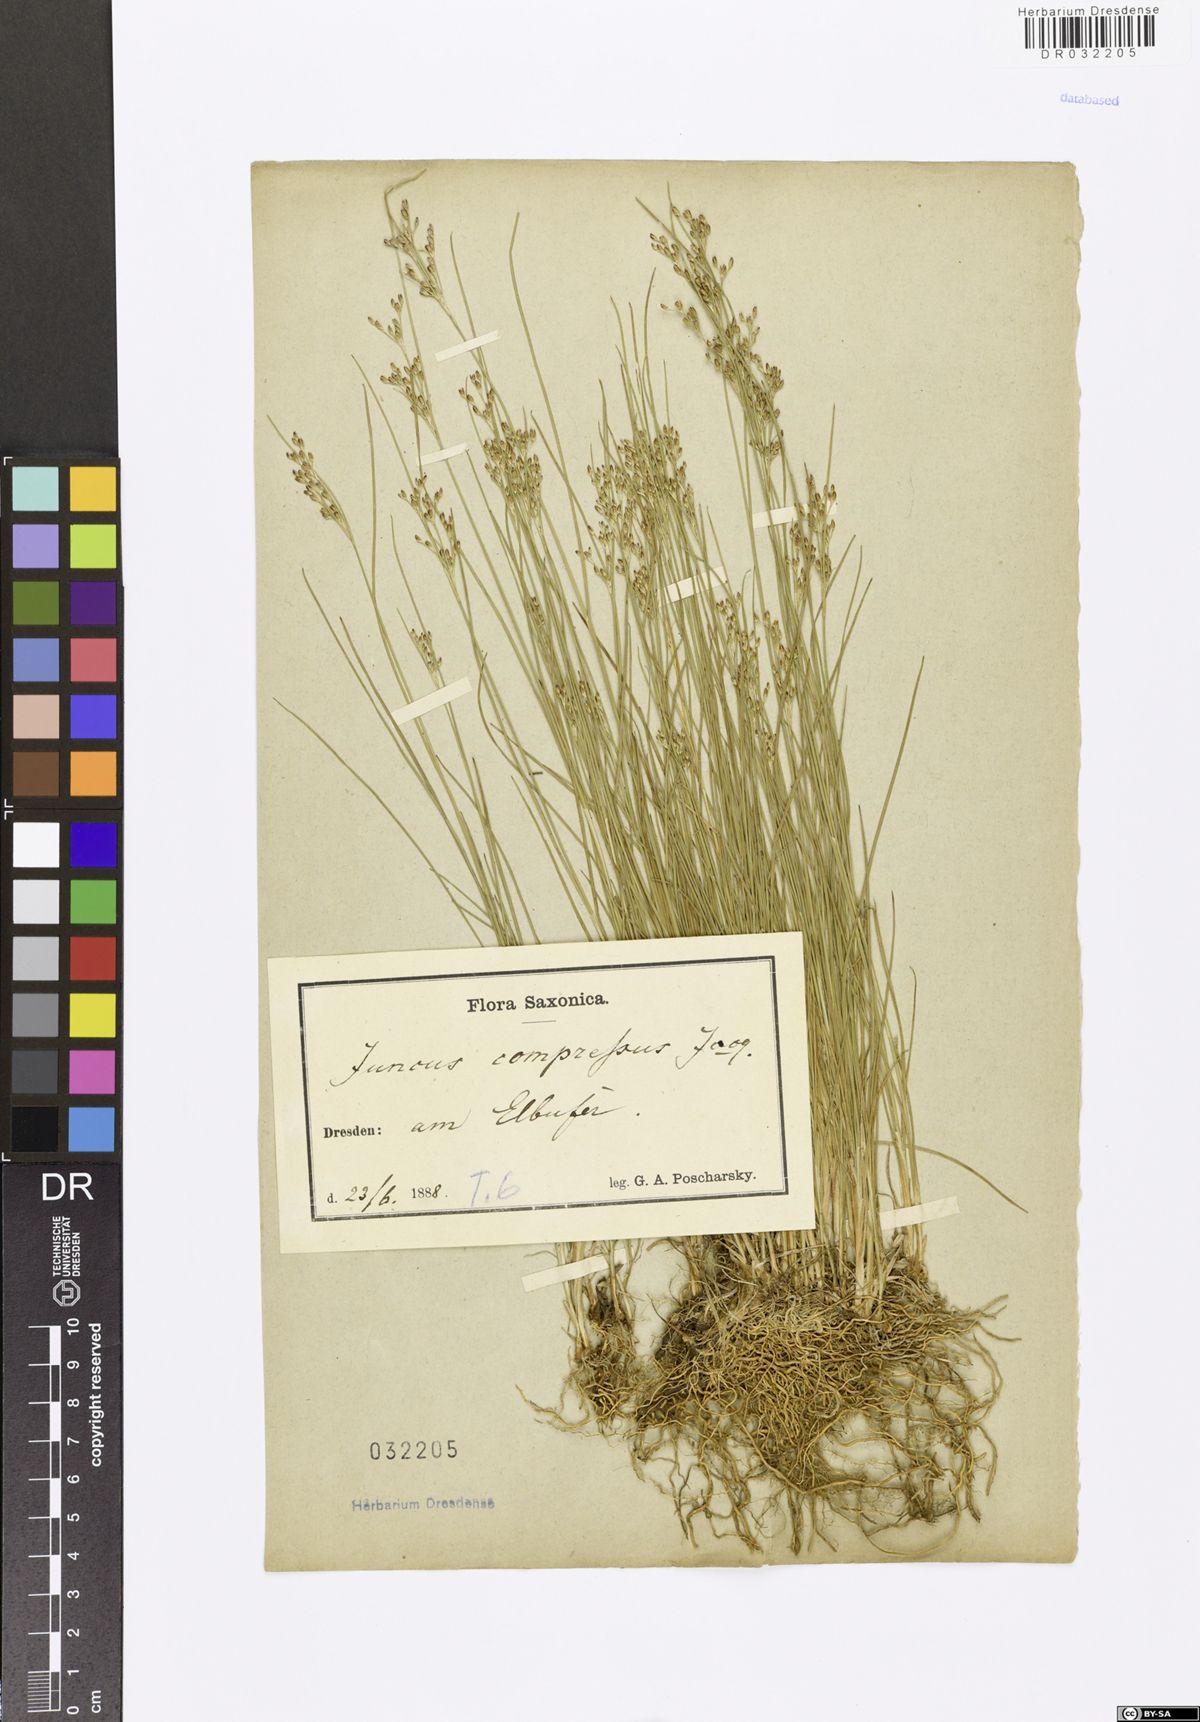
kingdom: Plantae
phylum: Tracheophyta
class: Liliopsida
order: Poales
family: Juncaceae
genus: Juncus
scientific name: Juncus compressus
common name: Round-fruited rush
